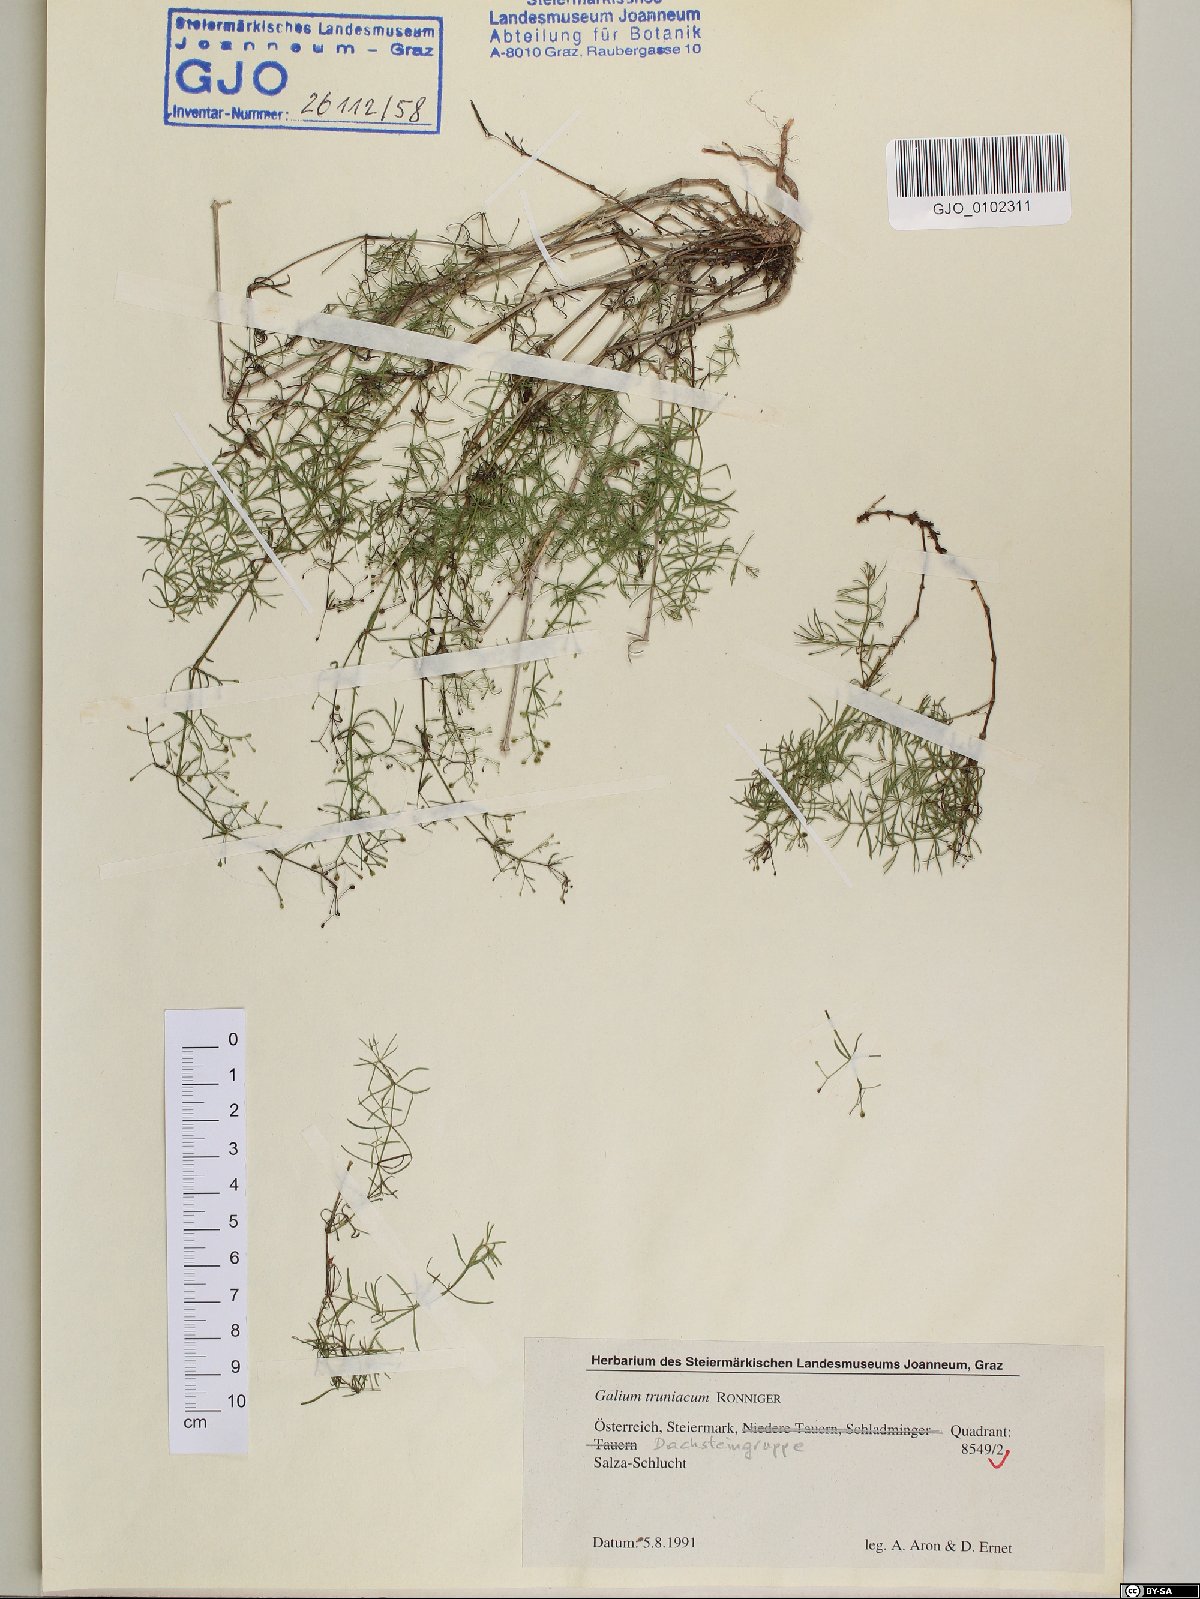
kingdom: Plantae
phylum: Tracheophyta
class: Magnoliopsida
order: Gentianales
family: Rubiaceae
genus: Galium
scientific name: Galium truniacum
